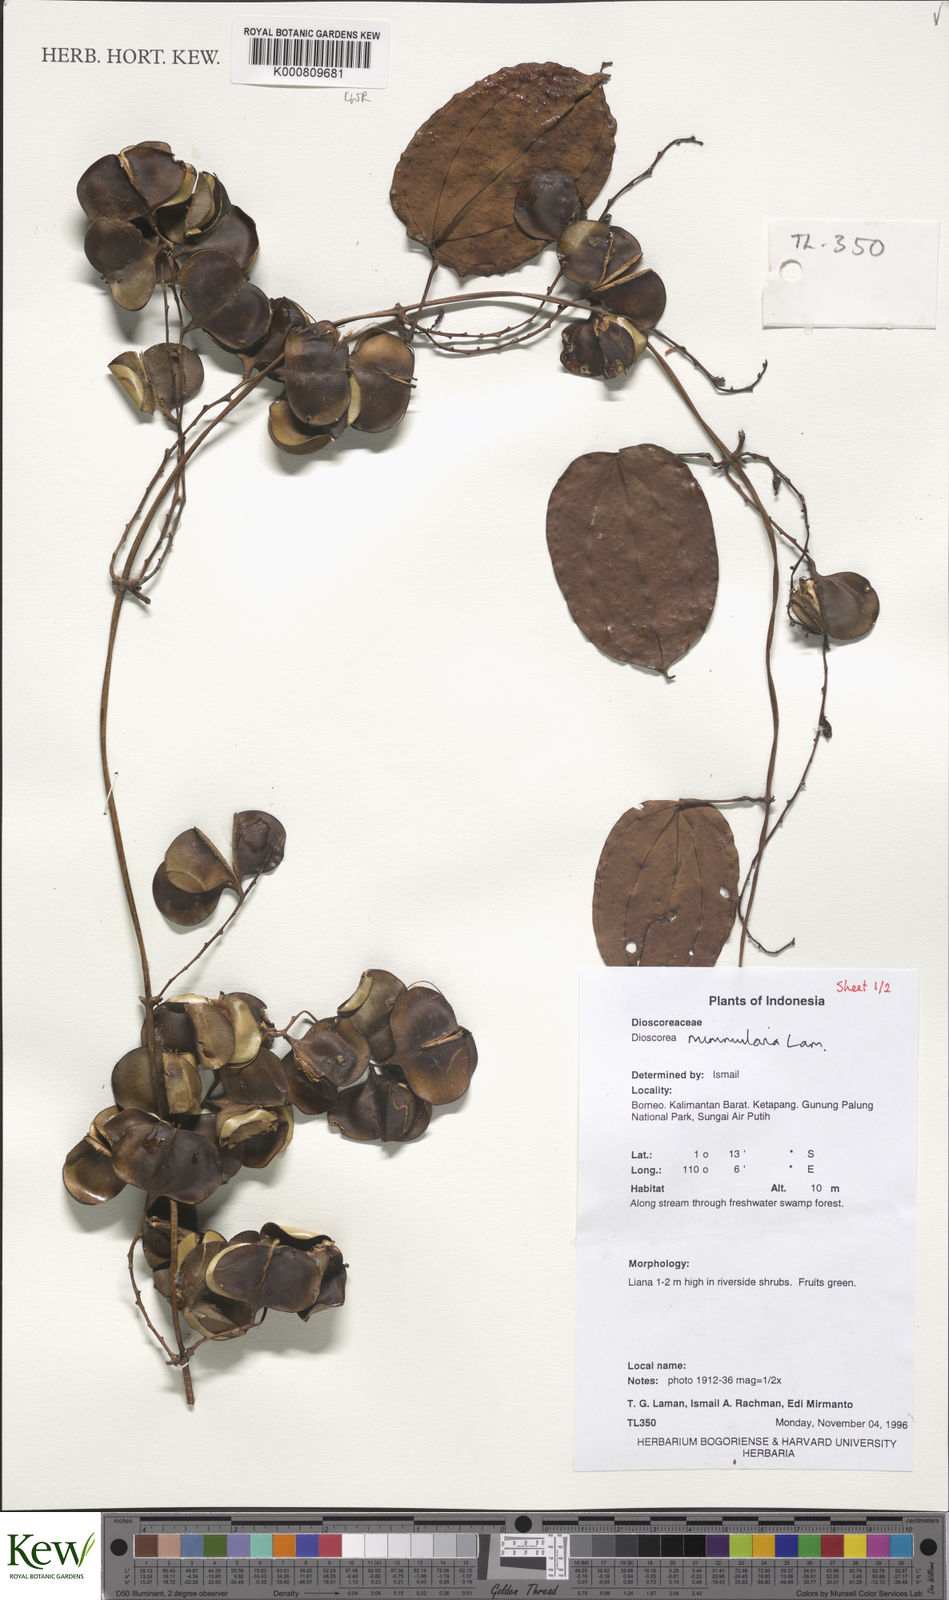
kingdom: Plantae
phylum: Tracheophyta
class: Liliopsida
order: Dioscoreales
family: Dioscoreaceae
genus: Dioscorea
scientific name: Dioscorea nummularia
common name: Pacific yam
